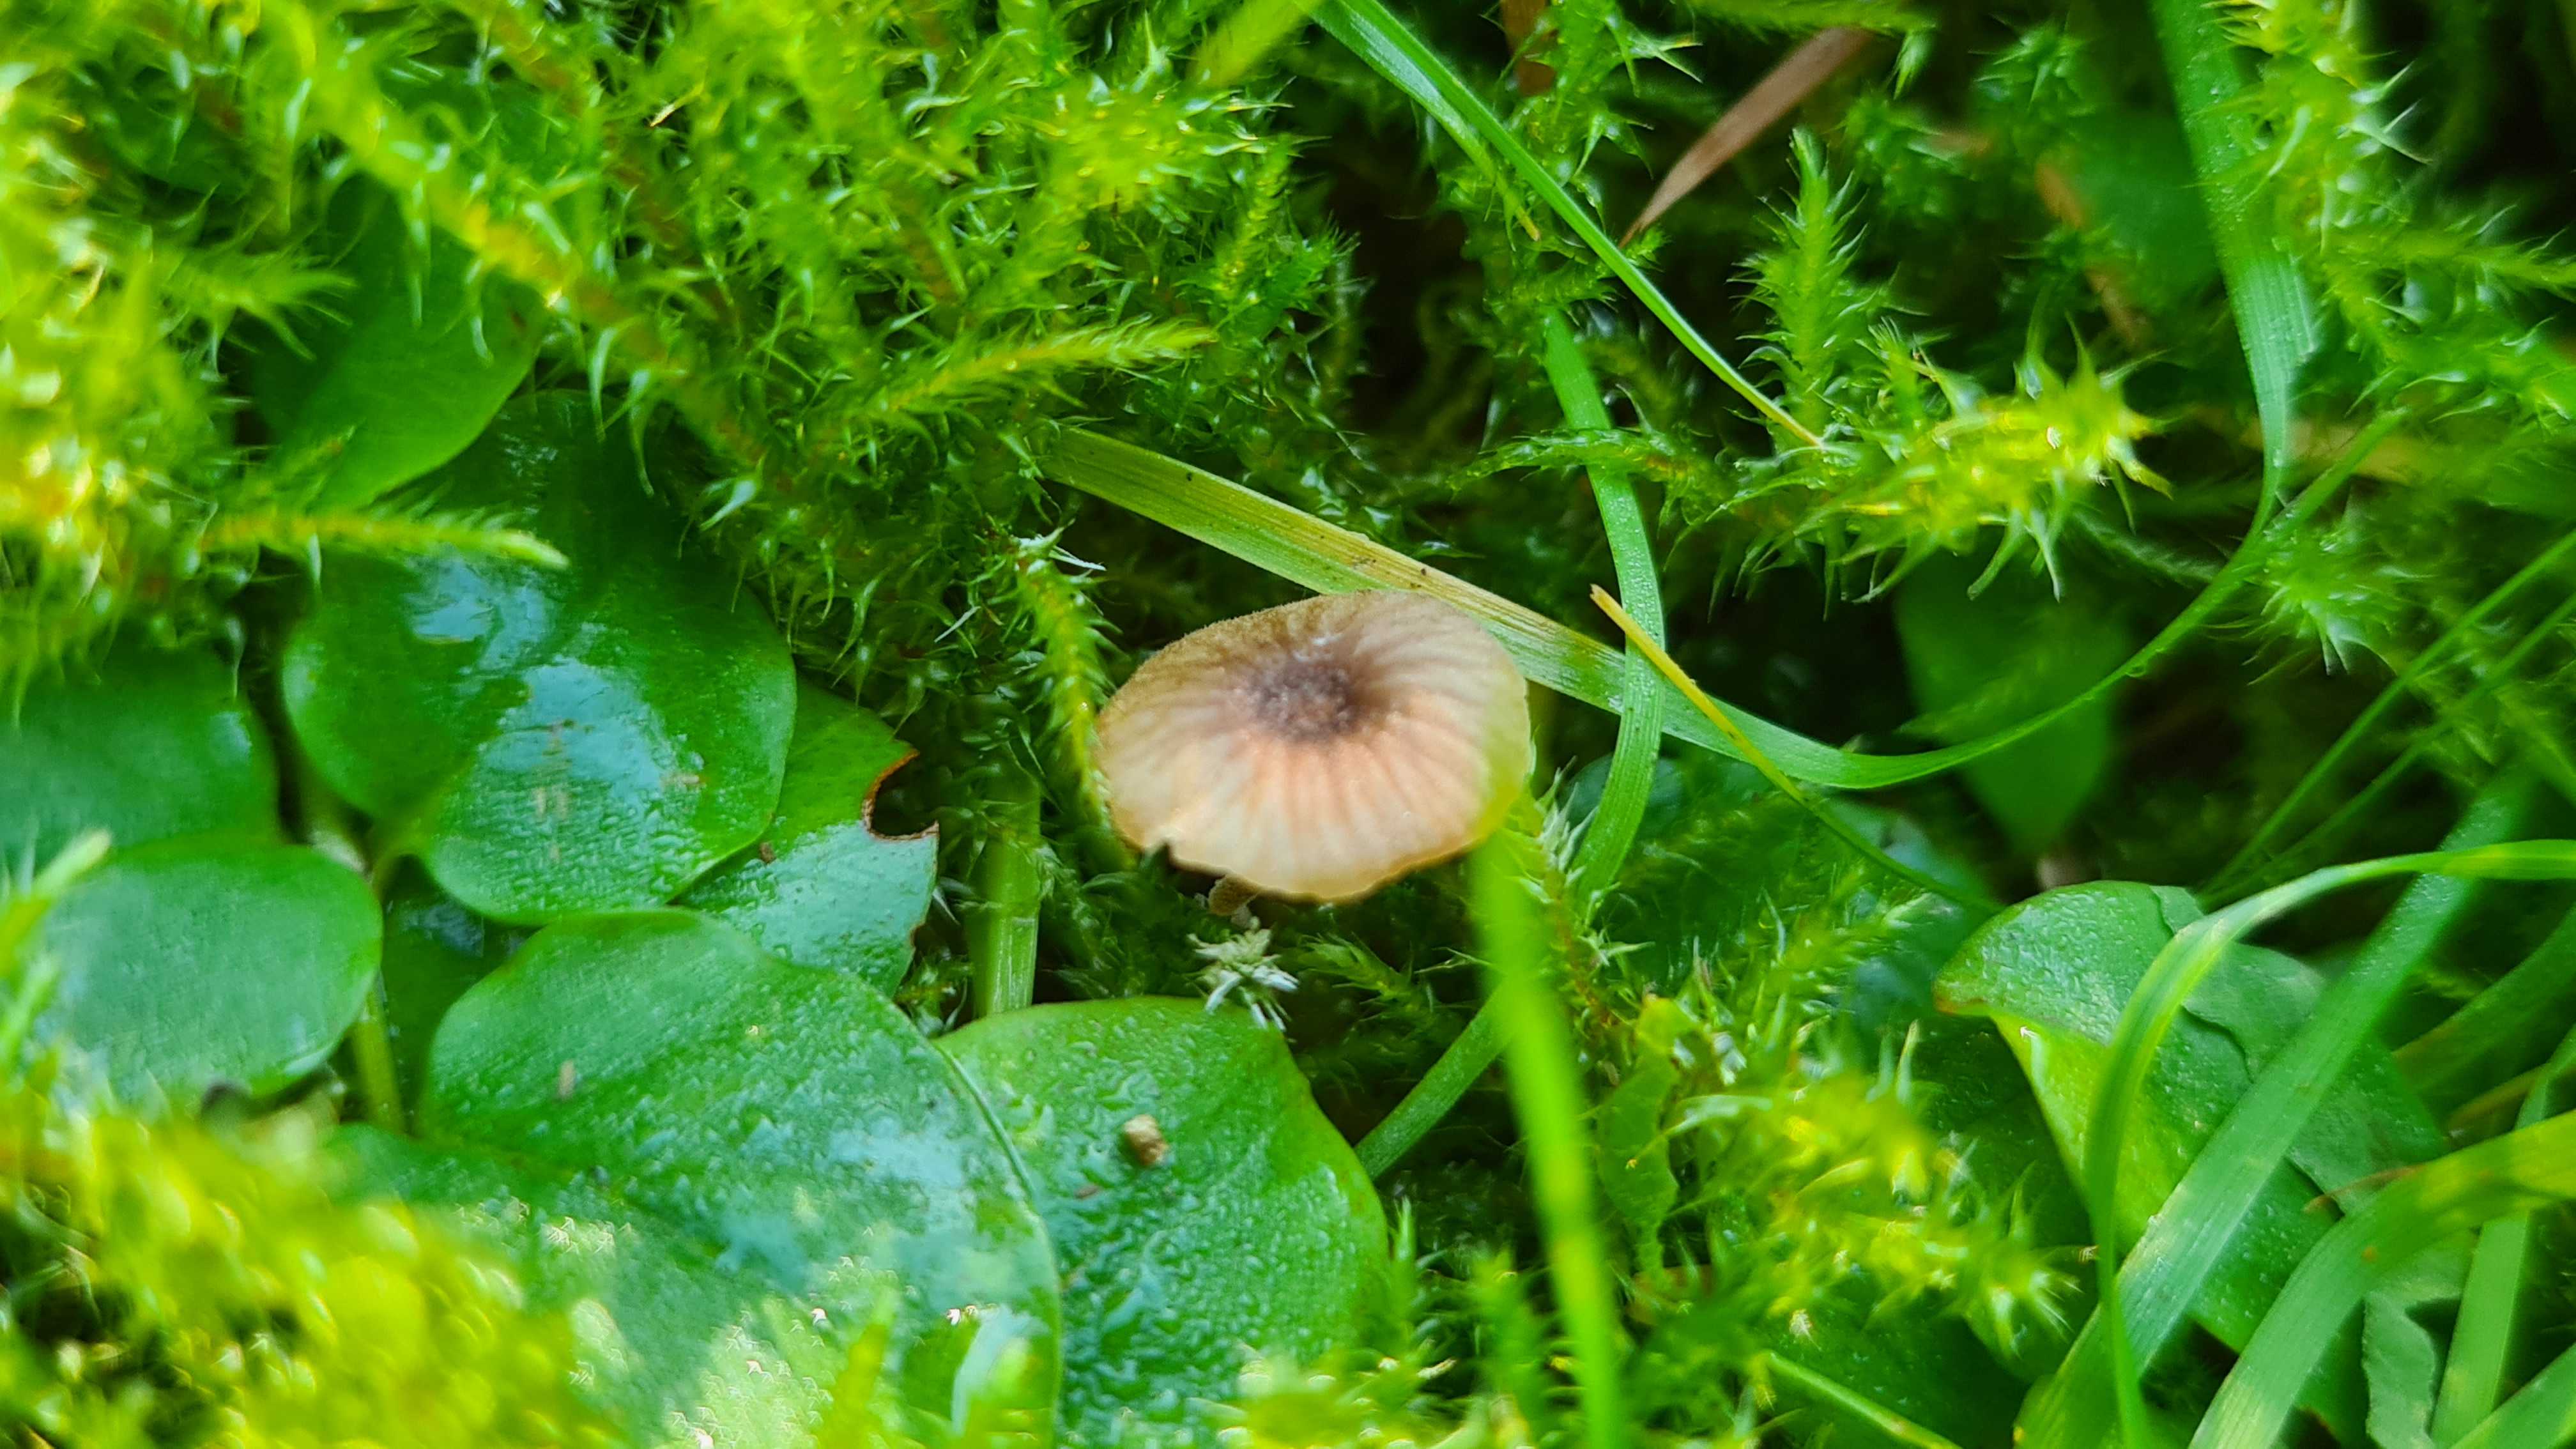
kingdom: Fungi
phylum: Basidiomycota
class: Agaricomycetes
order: Hymenochaetales
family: Rickenellaceae
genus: Rickenella
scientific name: Rickenella swartzii
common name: finstokket mosnavlehat
